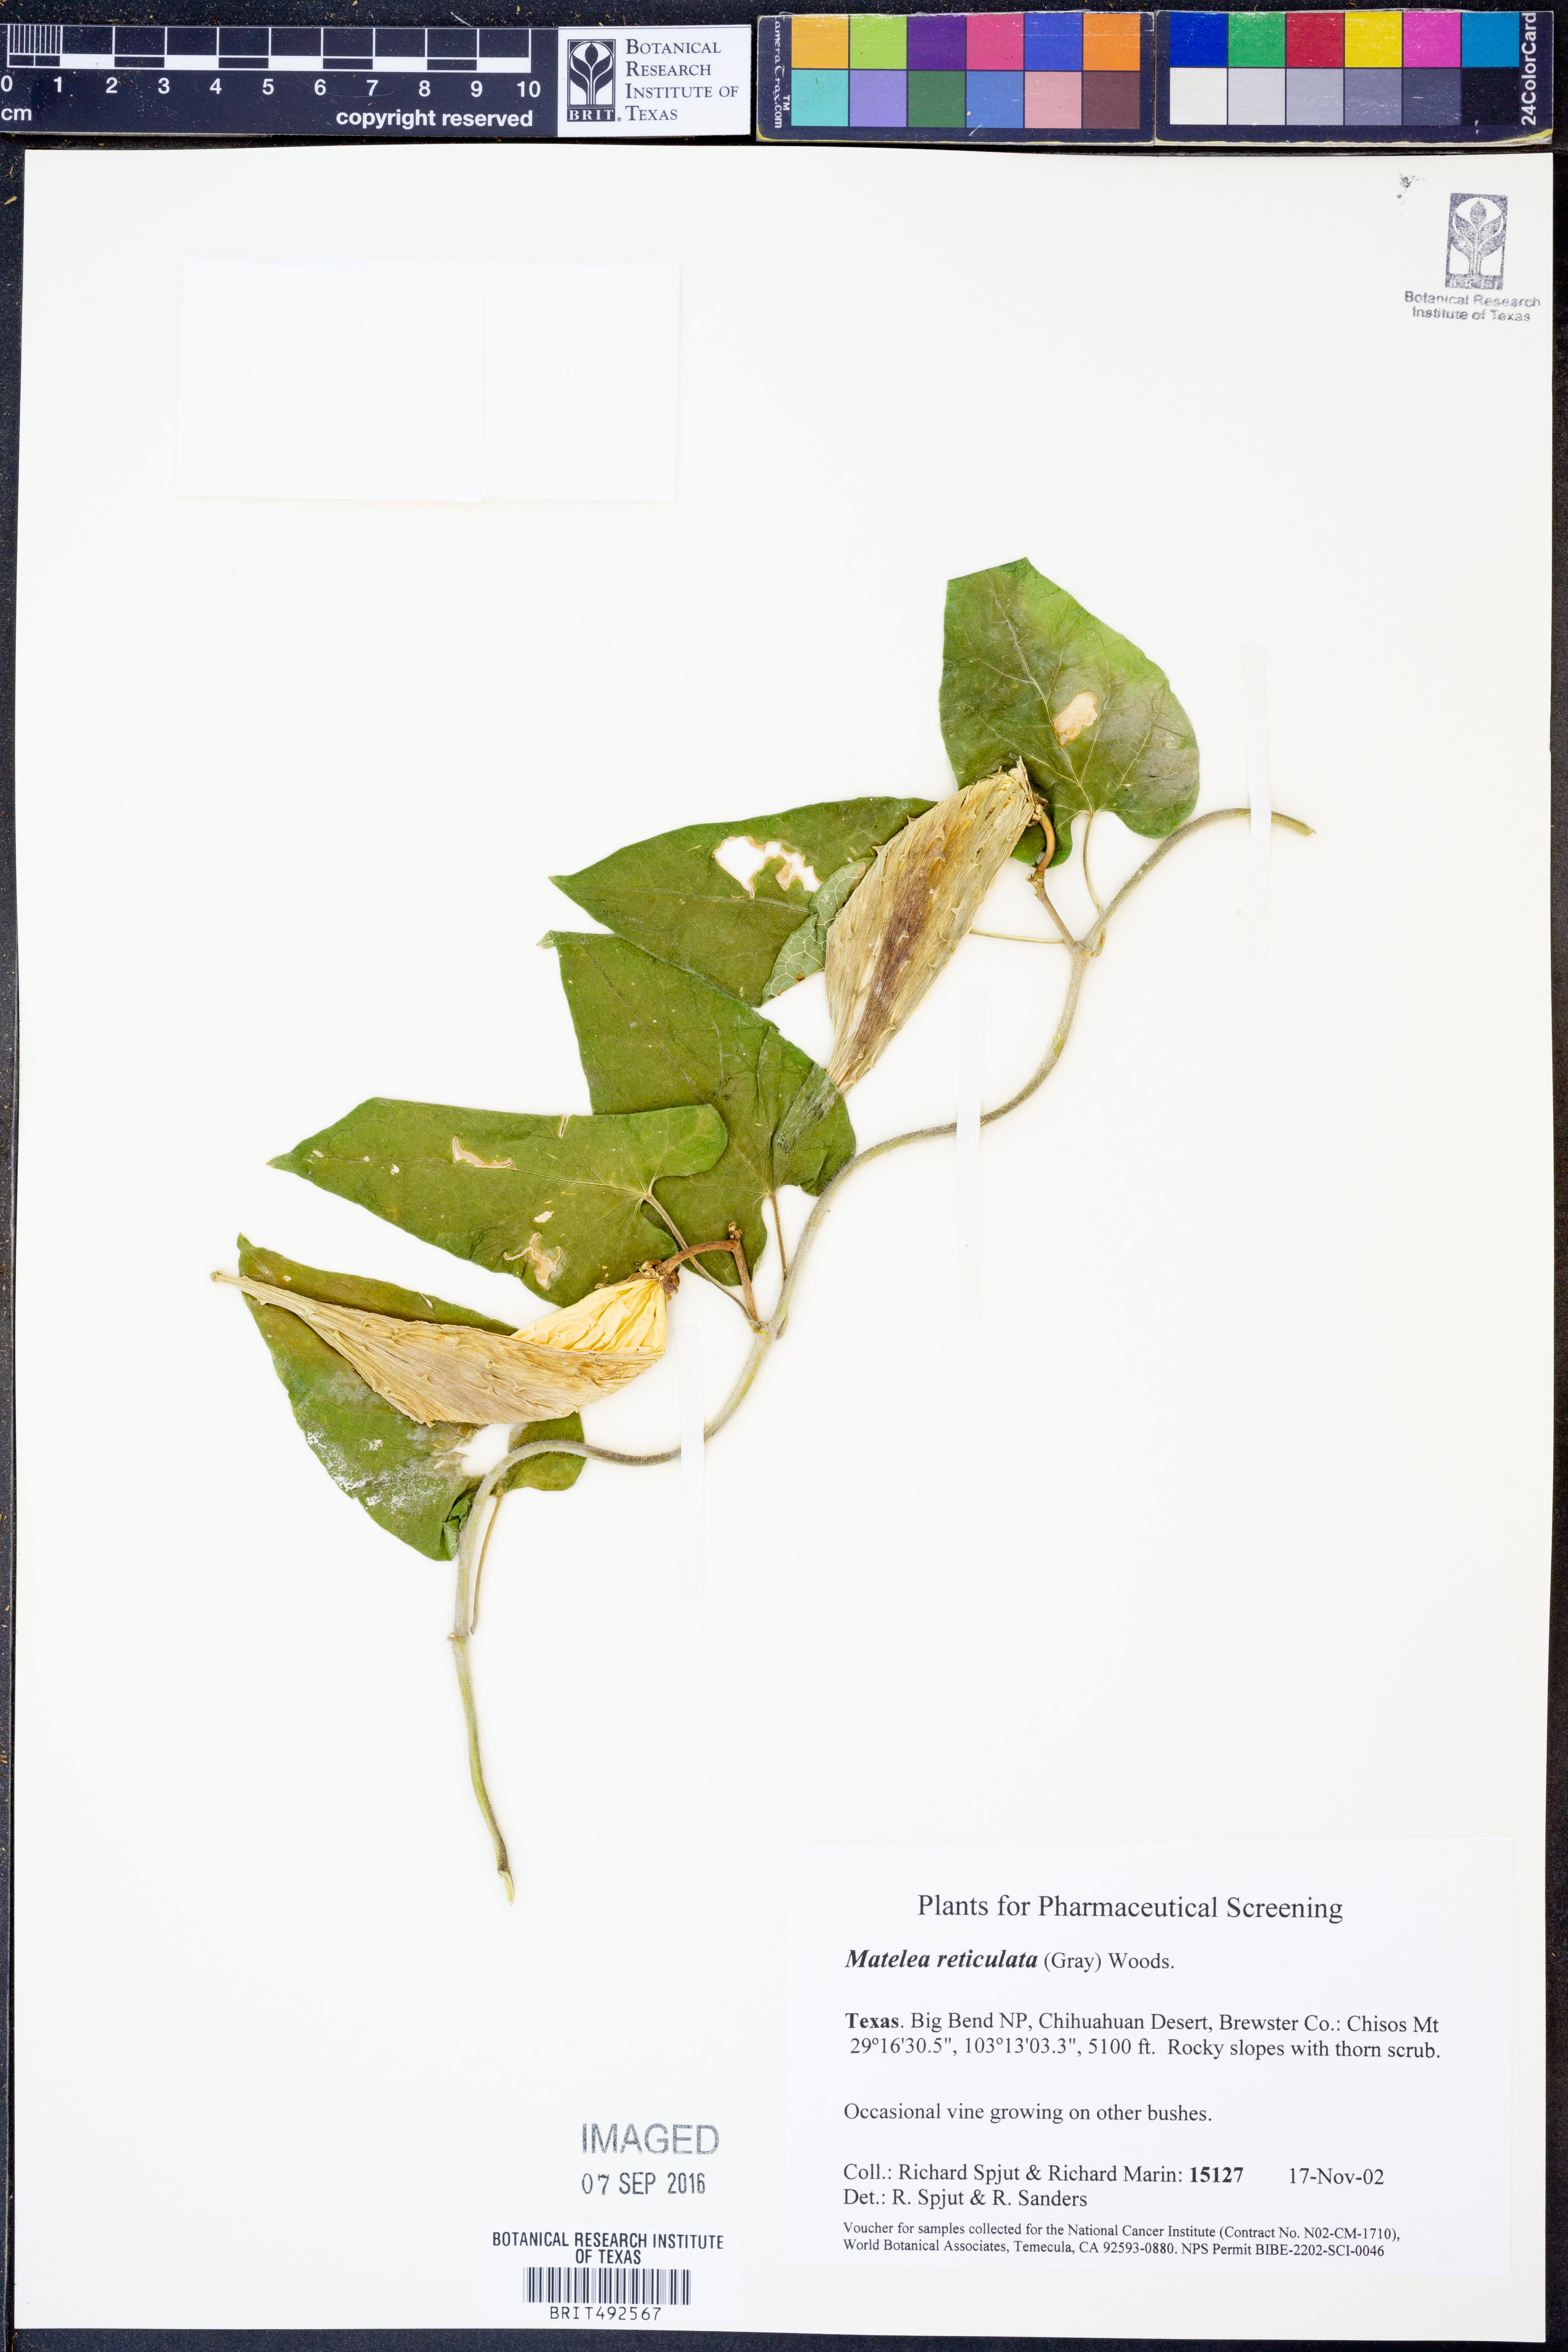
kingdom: Plantae
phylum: Tracheophyta
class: Magnoliopsida
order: Gentianales
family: Apocynaceae
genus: Dictyanthus
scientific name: Dictyanthus reticulatus
